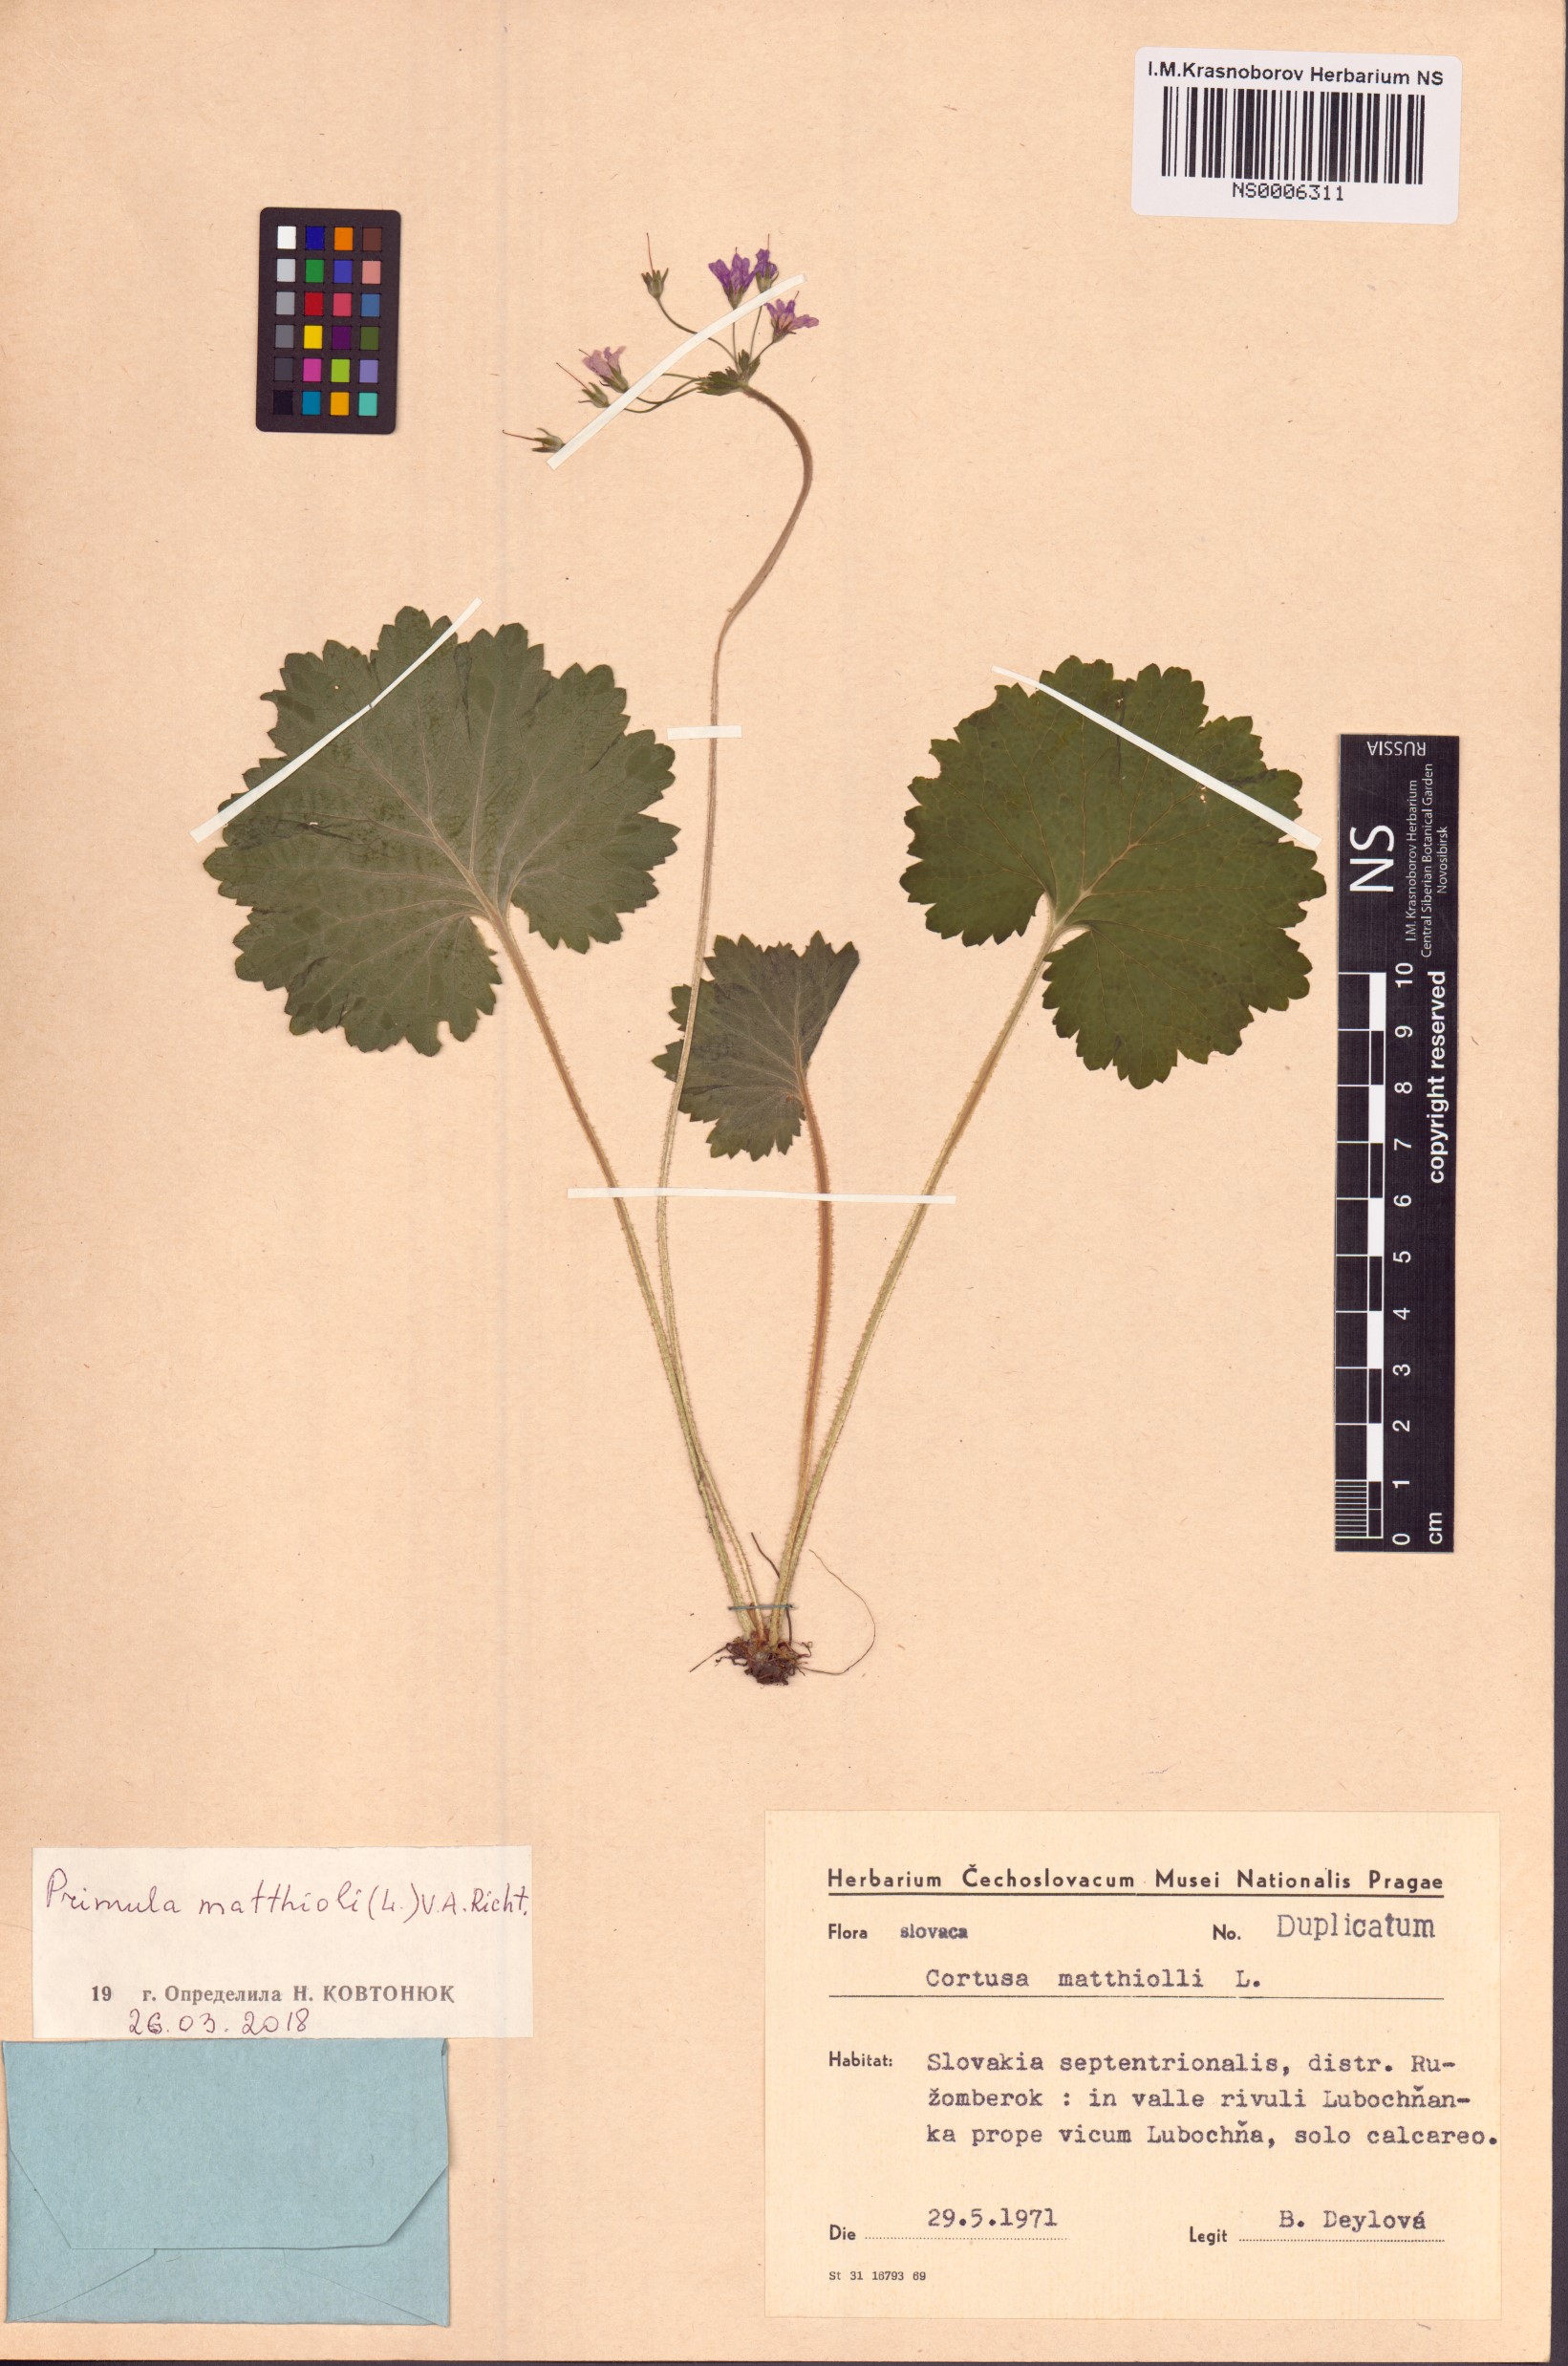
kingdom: Plantae
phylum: Tracheophyta
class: Magnoliopsida
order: Ericales
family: Primulaceae
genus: Primula
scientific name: Primula matthioli
